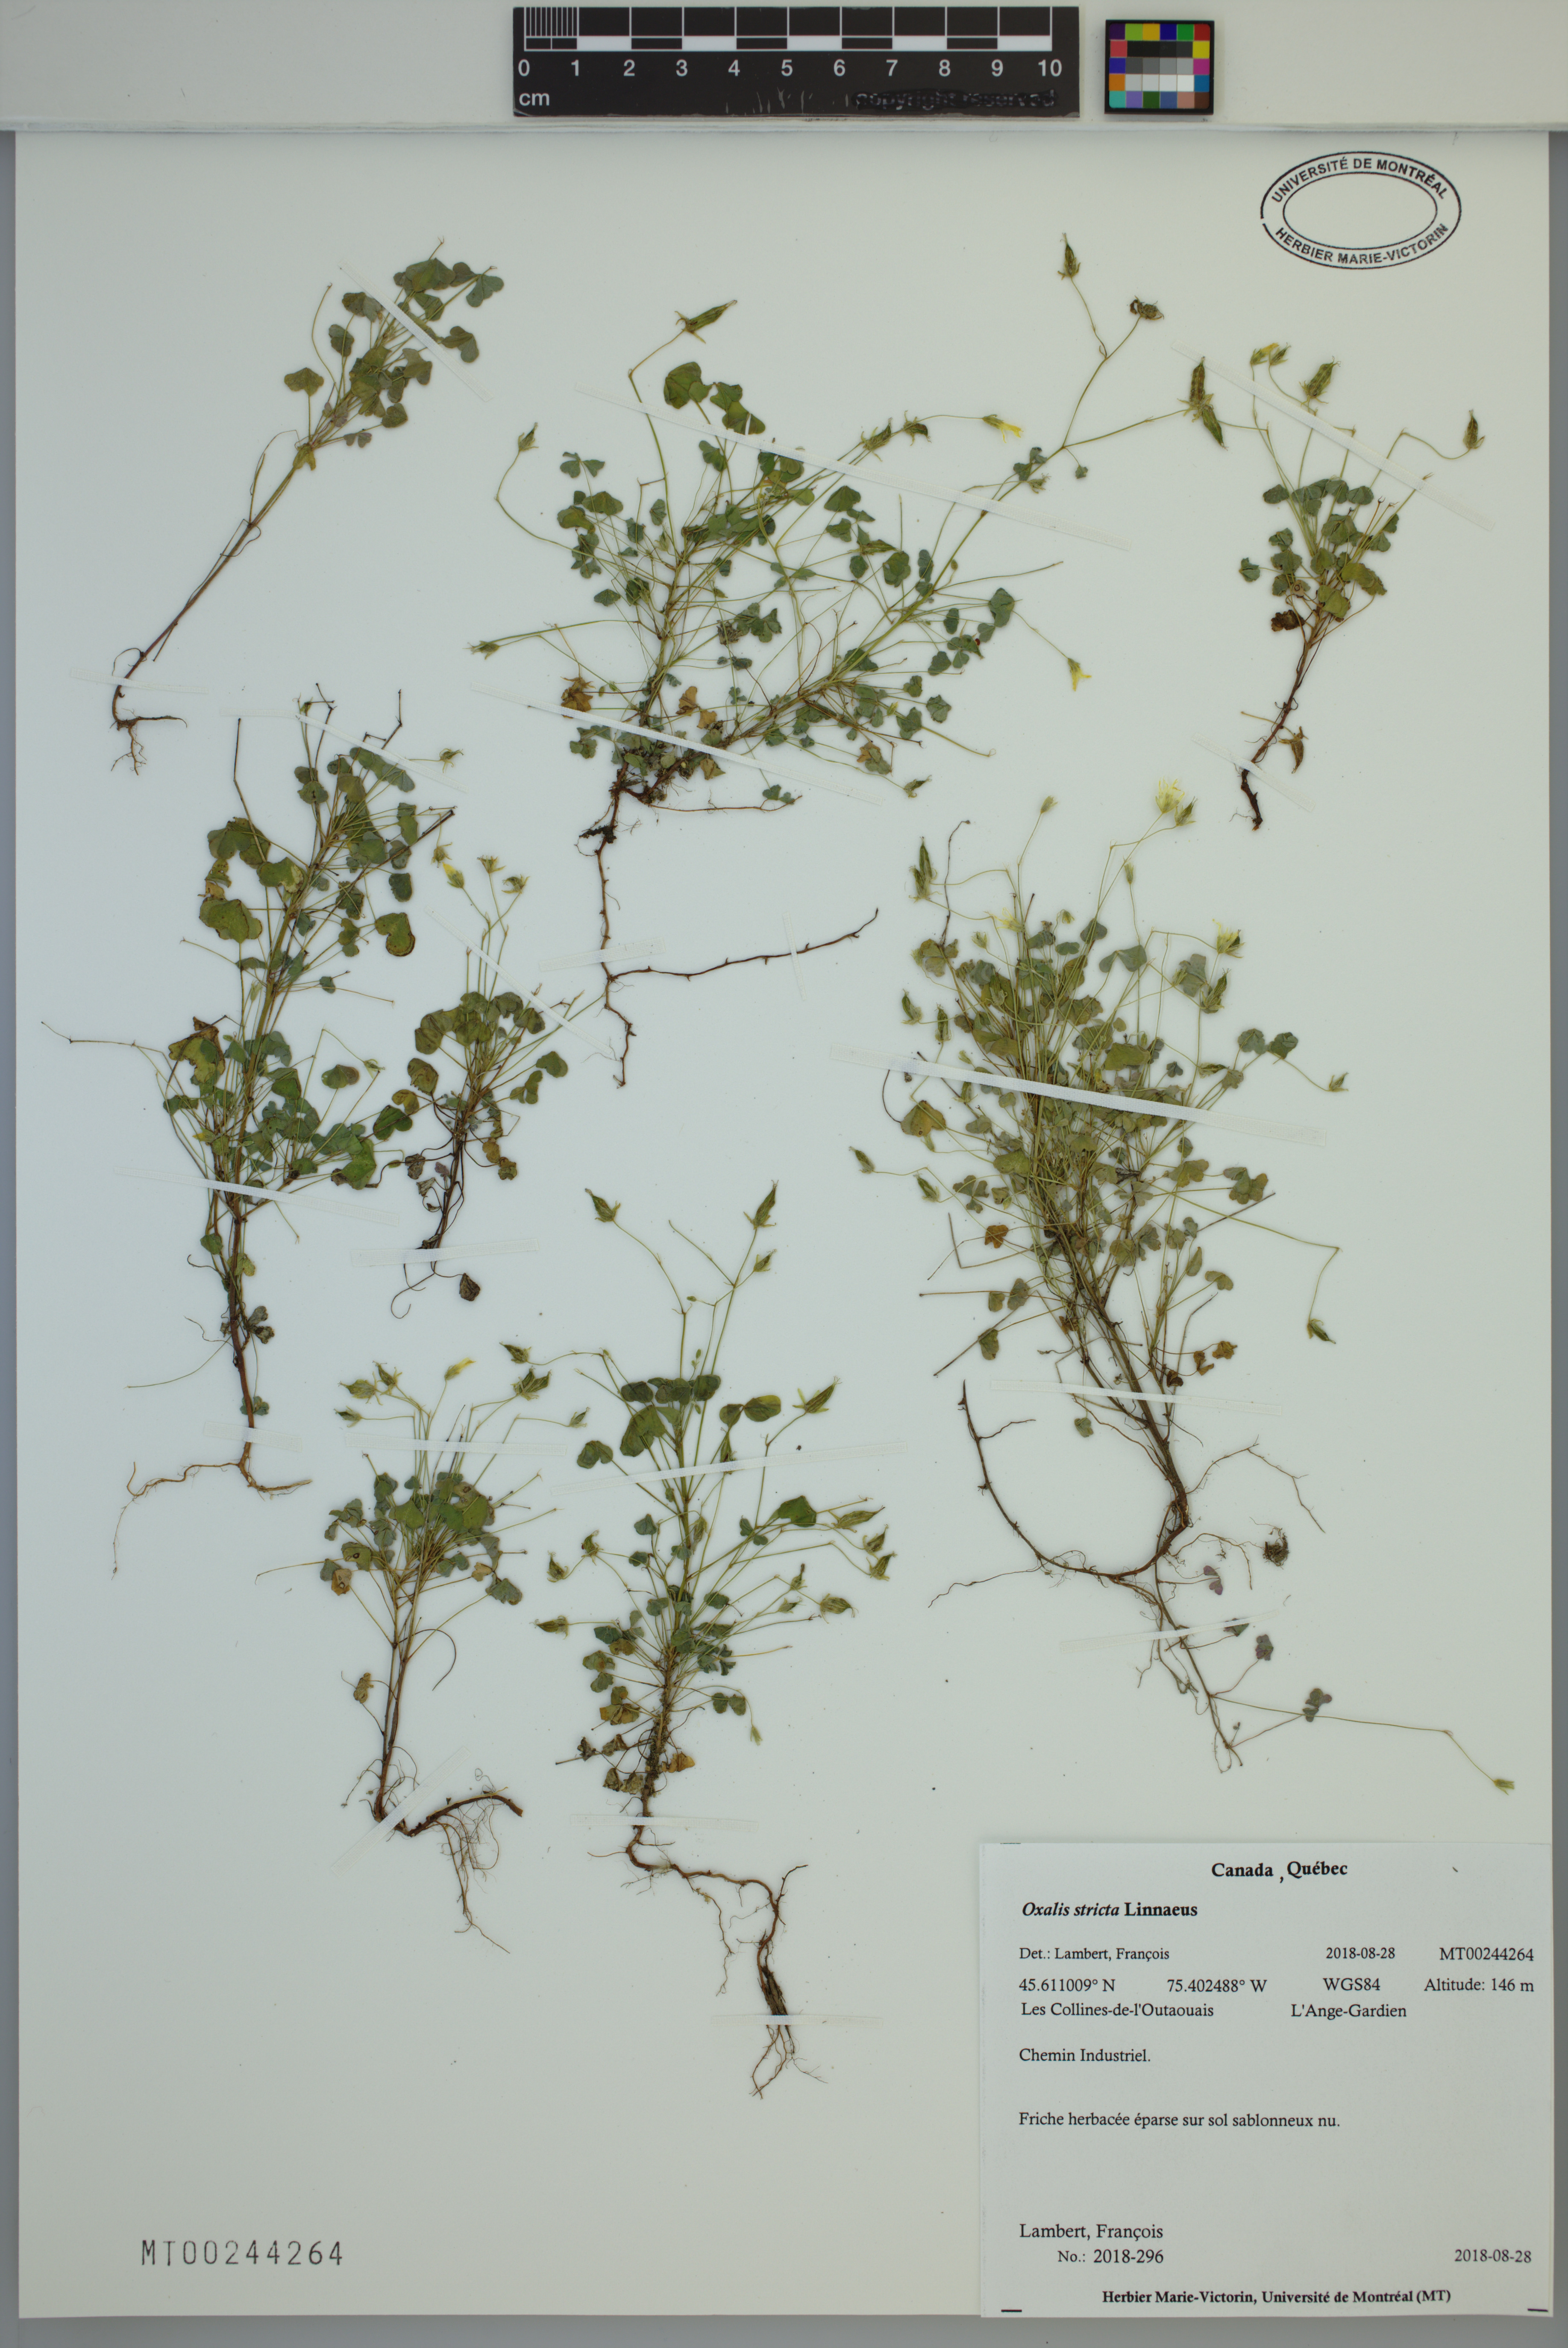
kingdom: Plantae
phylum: Tracheophyta
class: Magnoliopsida
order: Oxalidales
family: Oxalidaceae
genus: Oxalis
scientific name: Oxalis stricta
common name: Upright yellow-sorrel
